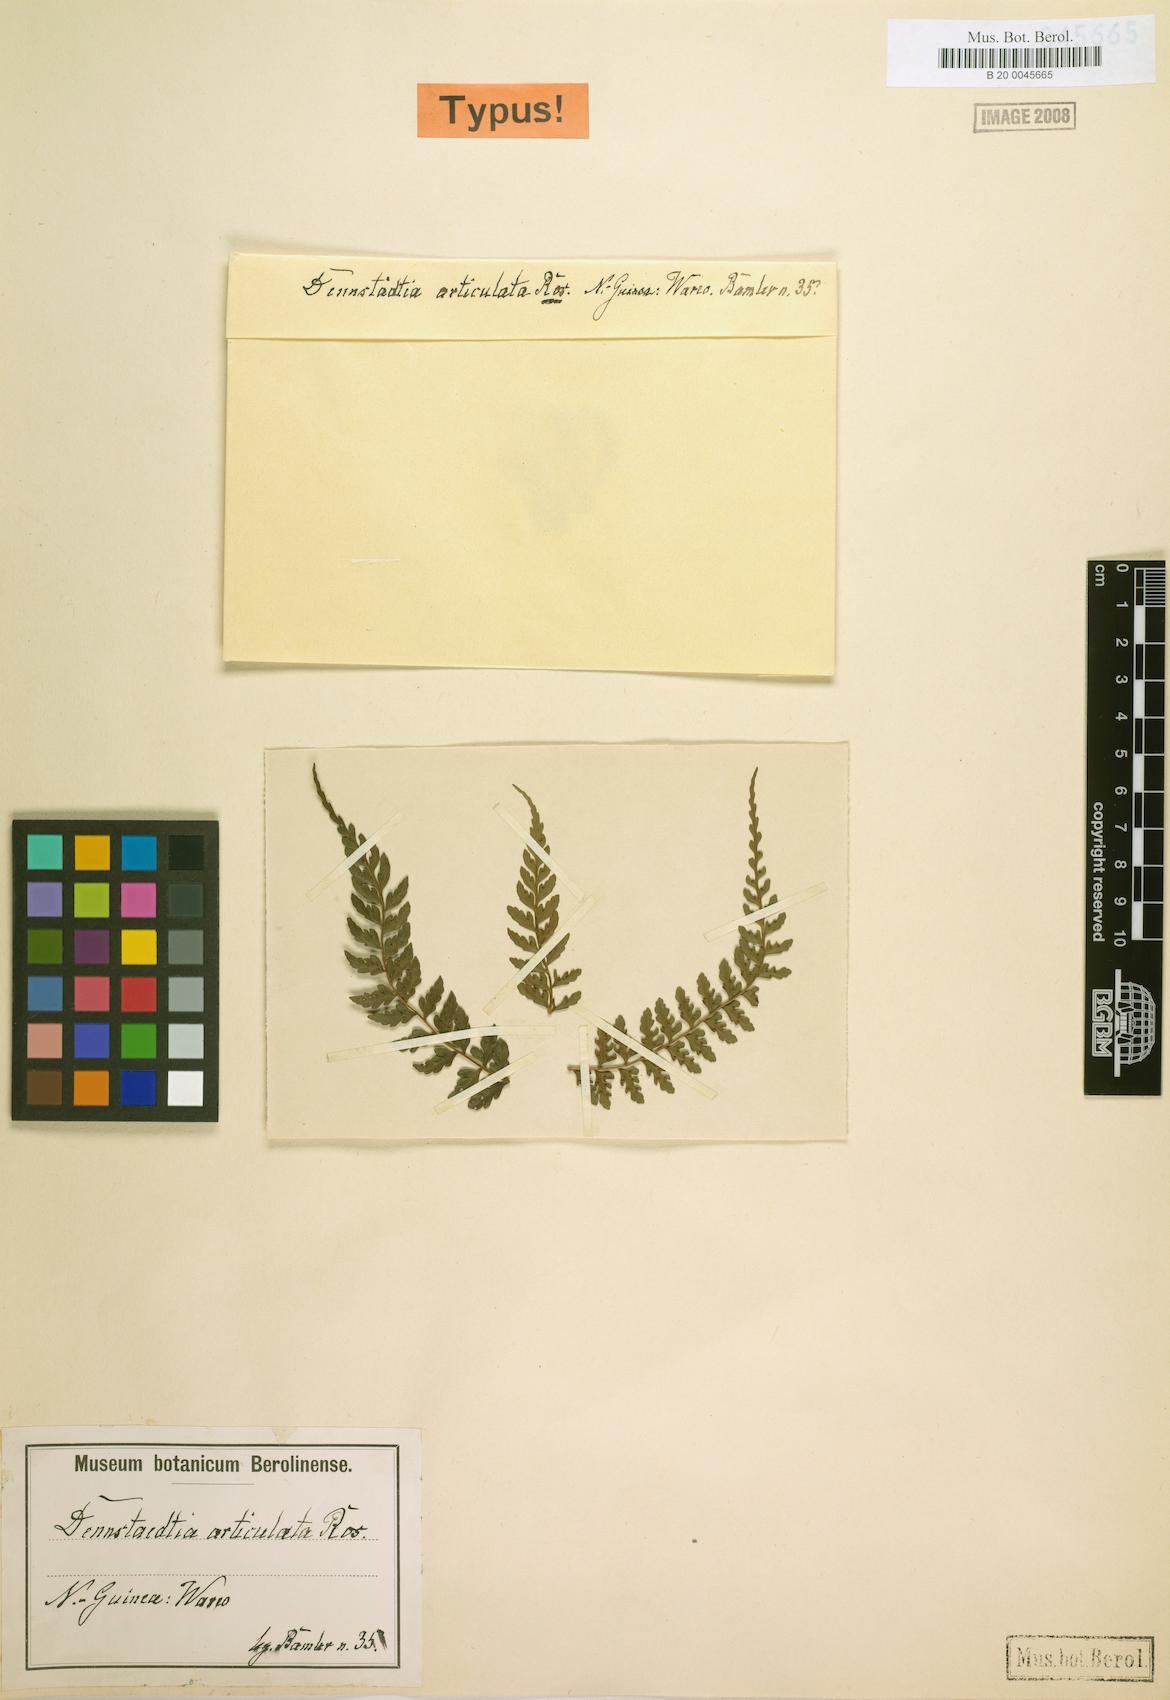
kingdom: Plantae
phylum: Tracheophyta
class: Polypodiopsida
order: Polypodiales
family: Dennstaedtiaceae
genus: Dennstaedtia
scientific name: Dennstaedtia glabrata
